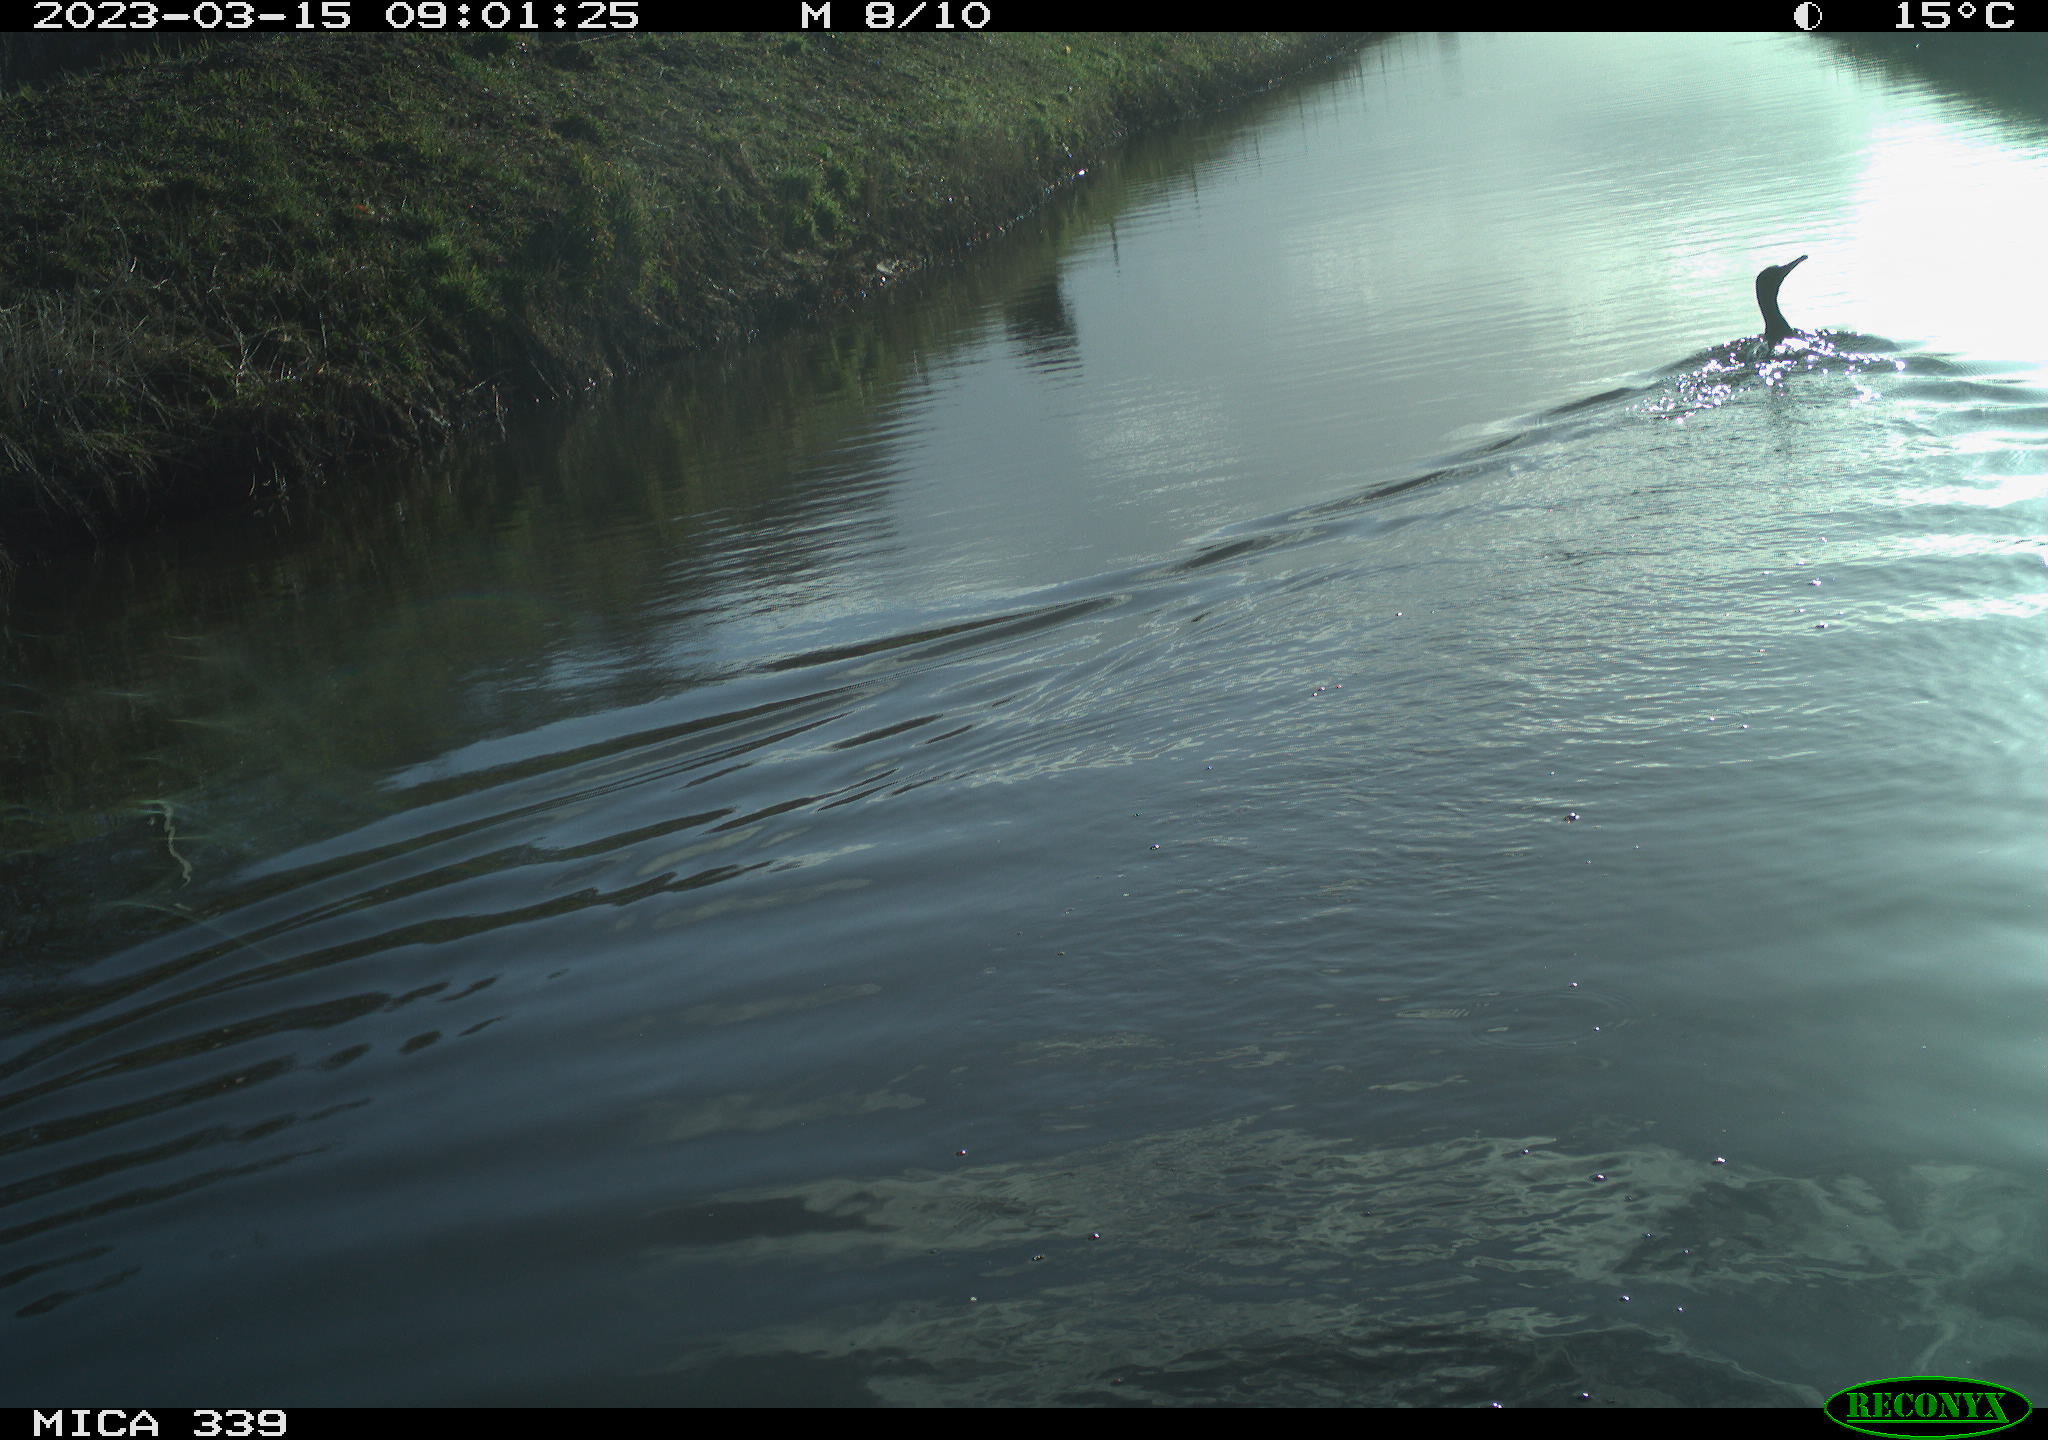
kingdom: Animalia
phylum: Chordata
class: Aves
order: Anseriformes
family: Anatidae
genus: Anas
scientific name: Anas
